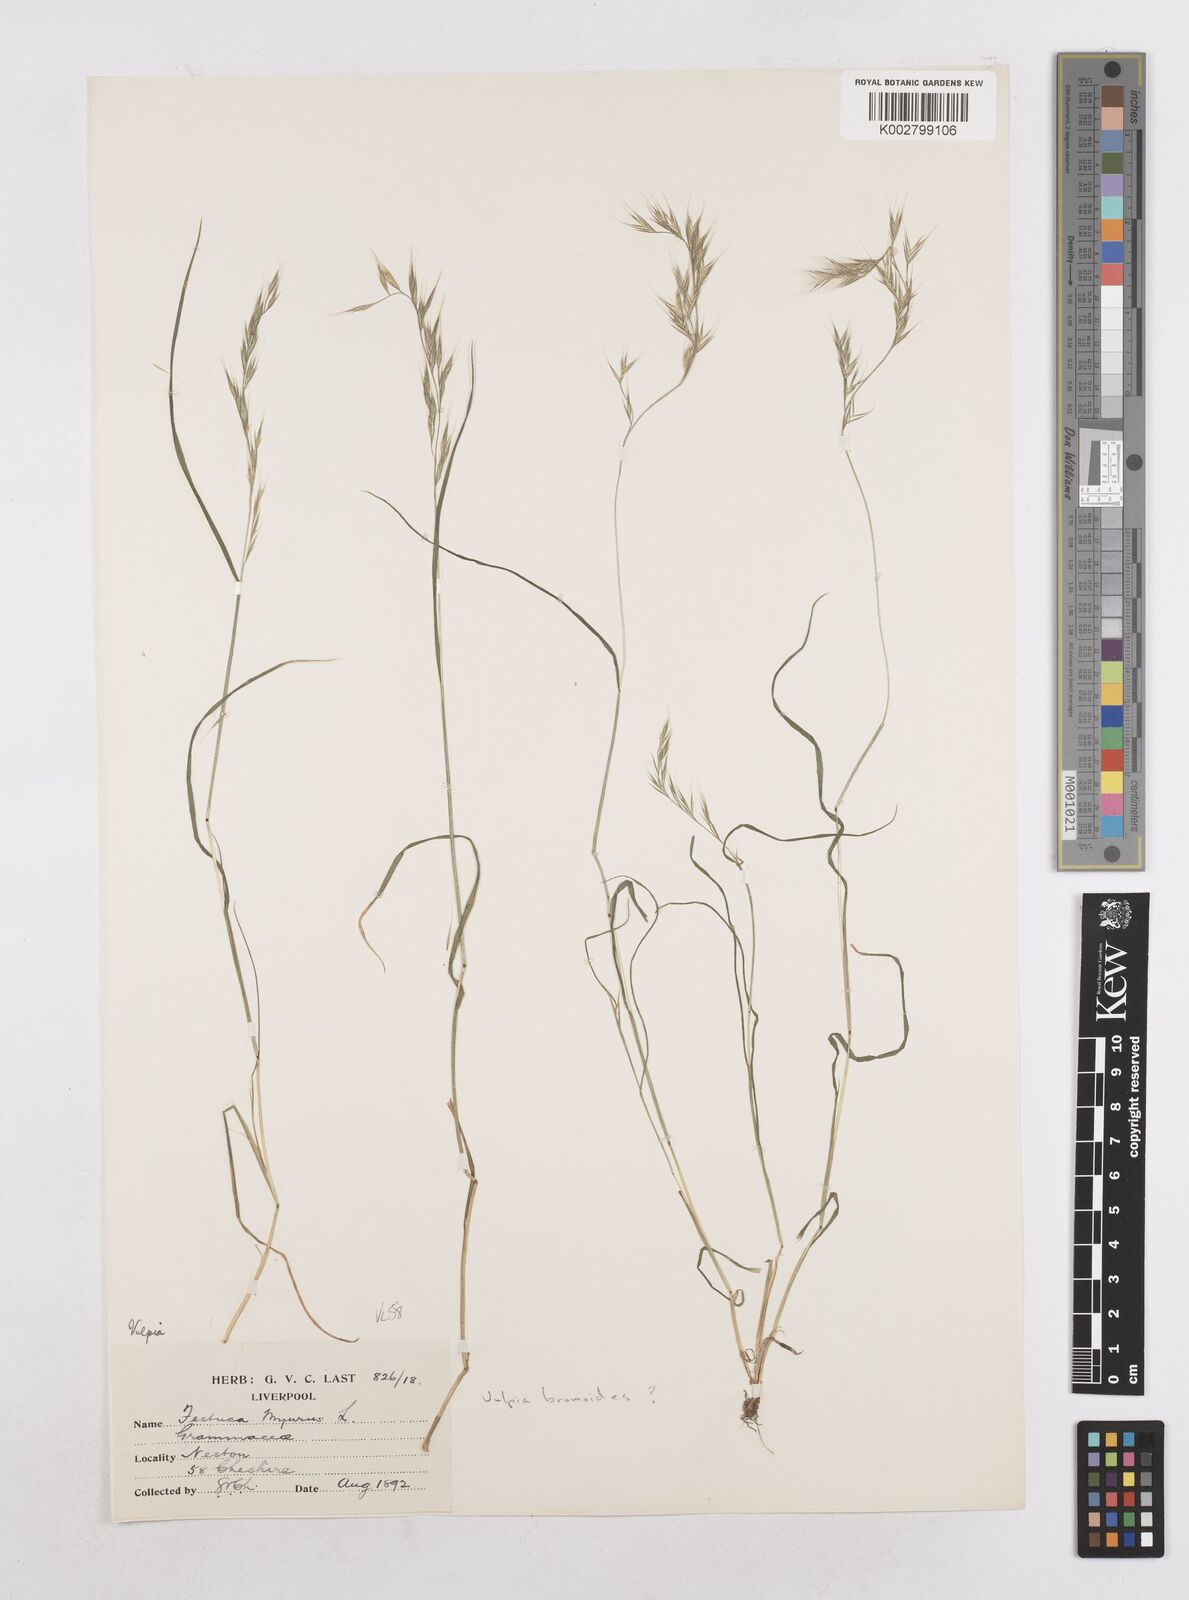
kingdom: Plantae
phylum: Tracheophyta
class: Liliopsida
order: Poales
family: Poaceae
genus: Festuca
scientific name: Festuca bromoides
